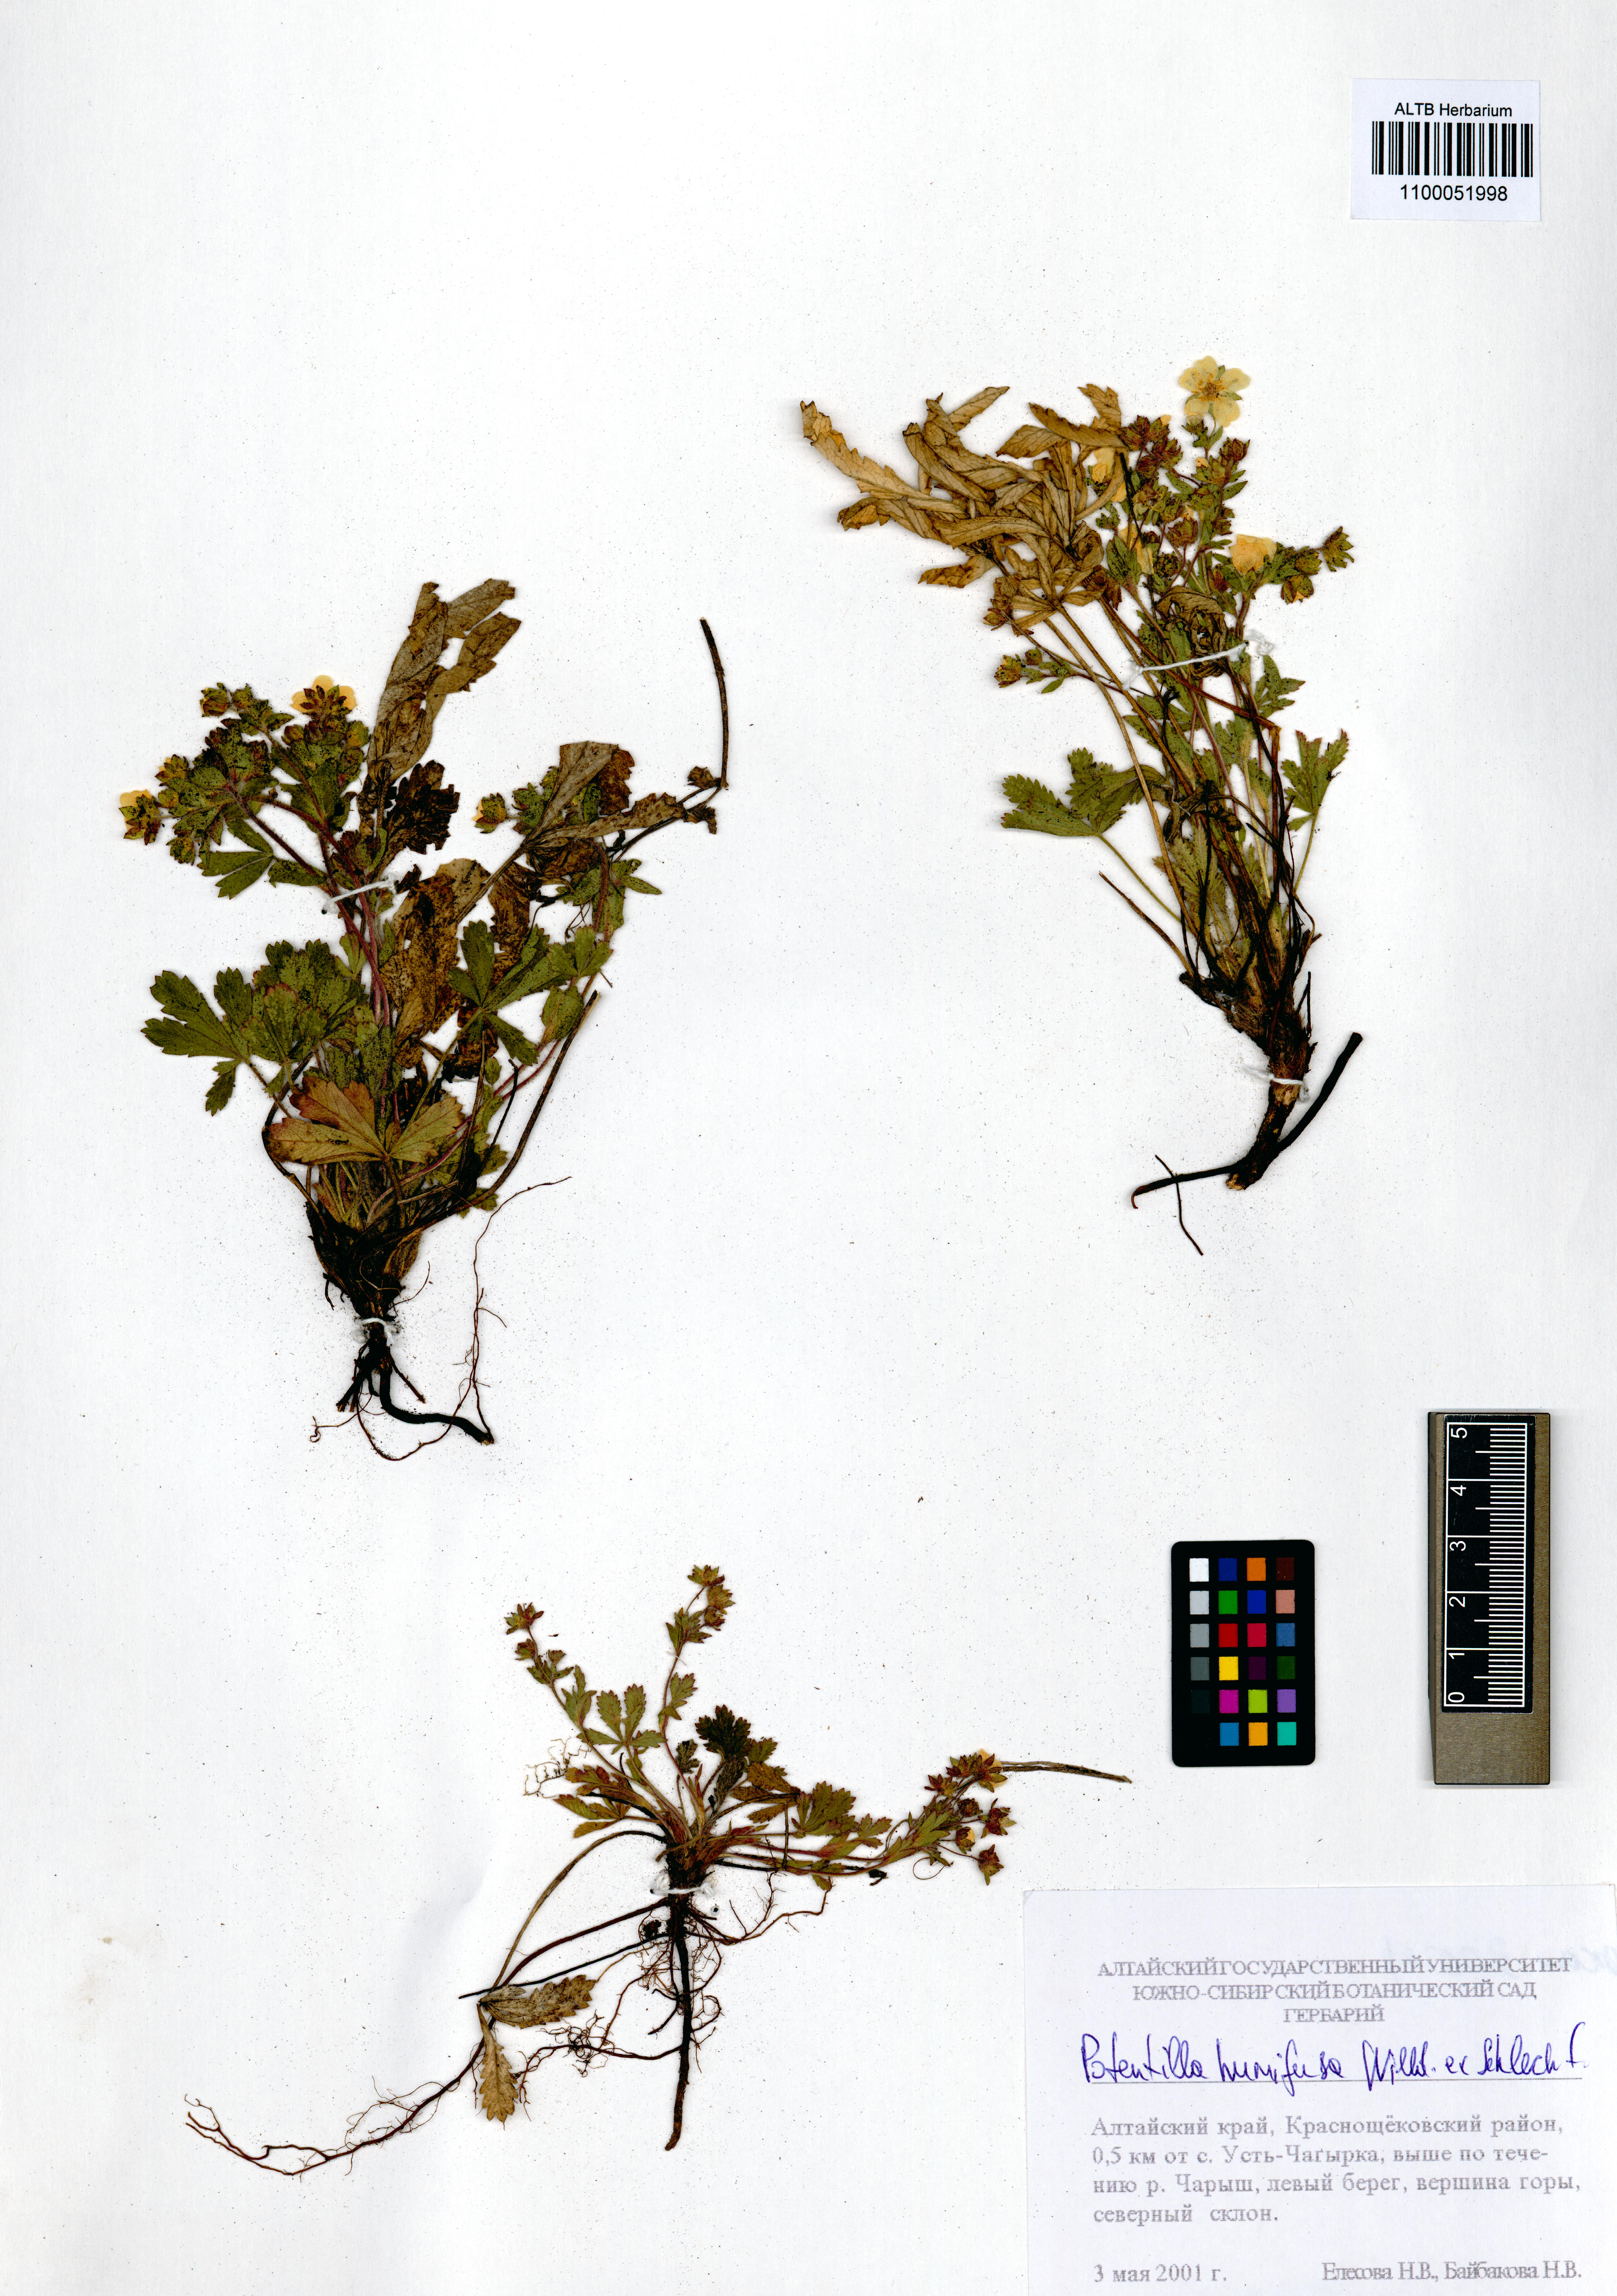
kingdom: Plantae
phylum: Tracheophyta
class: Magnoliopsida
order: Rosales
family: Rosaceae
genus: Potentilla
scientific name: Potentilla humifusa
